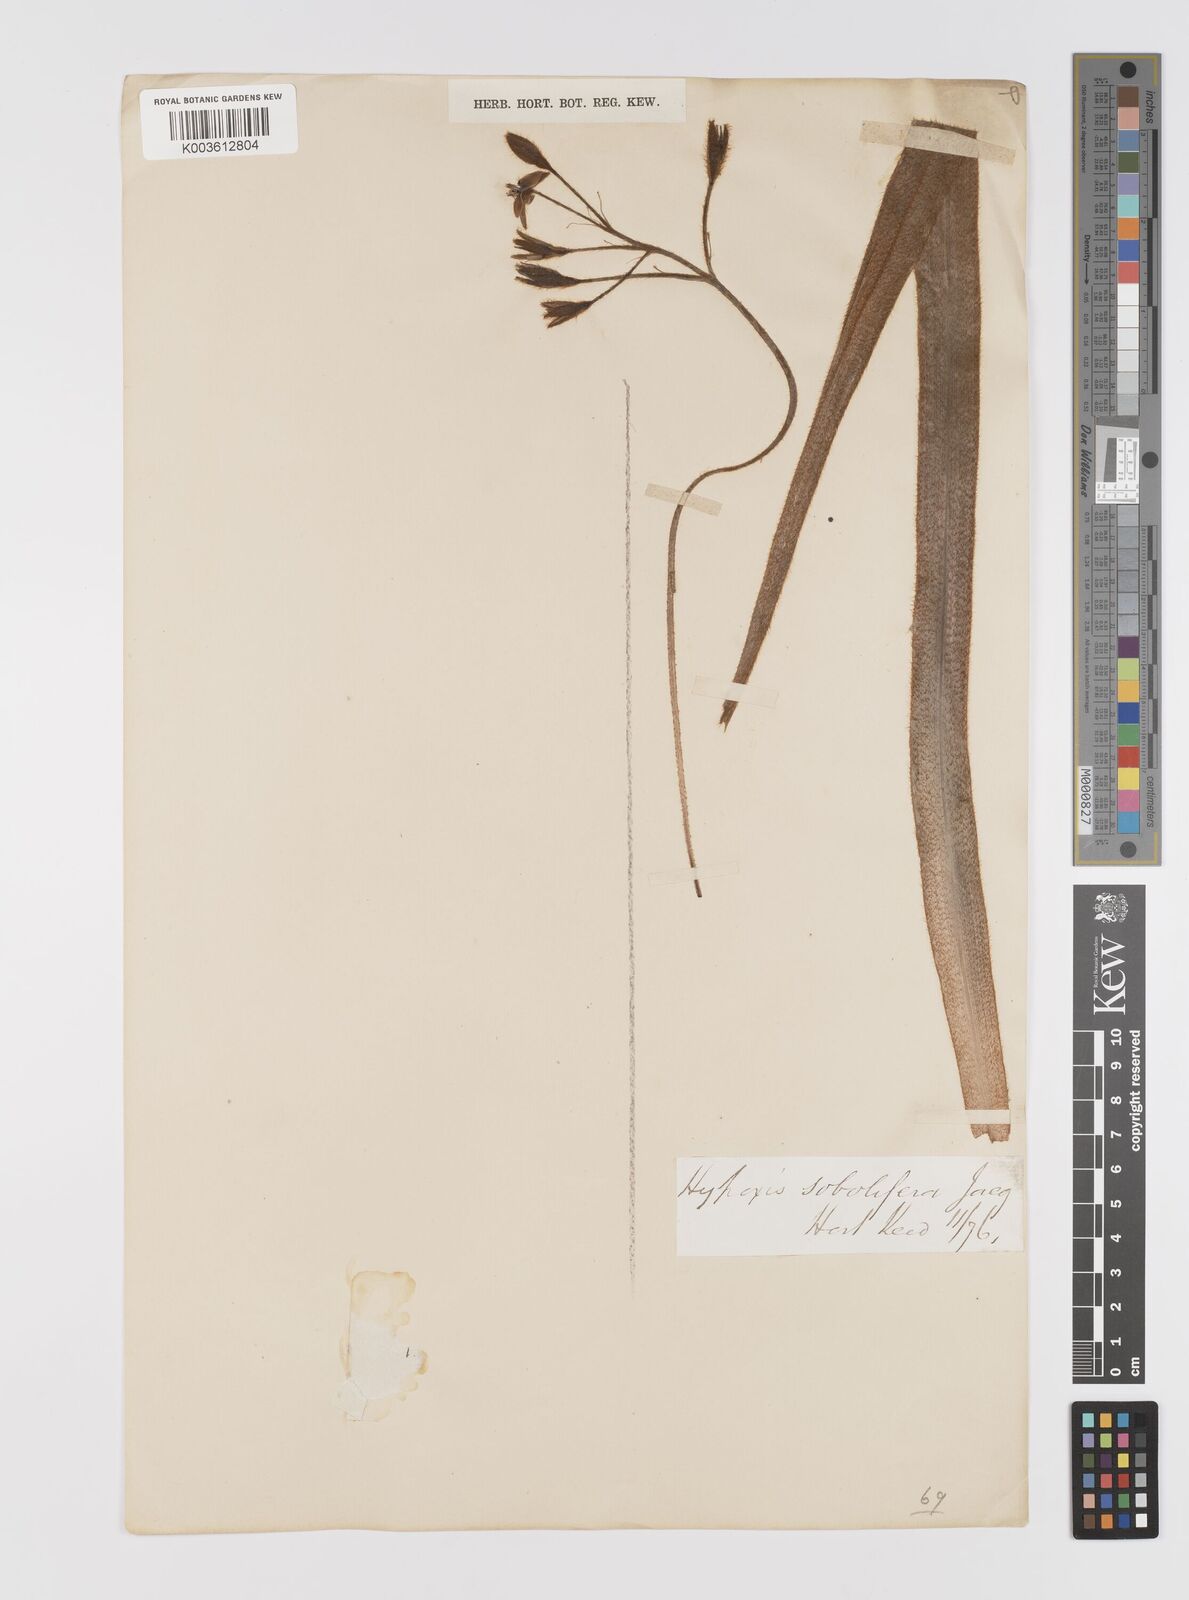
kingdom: Plantae
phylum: Tracheophyta
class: Liliopsida
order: Asparagales
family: Hypoxidaceae
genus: Hypoxis
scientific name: Hypoxis sobolifera
